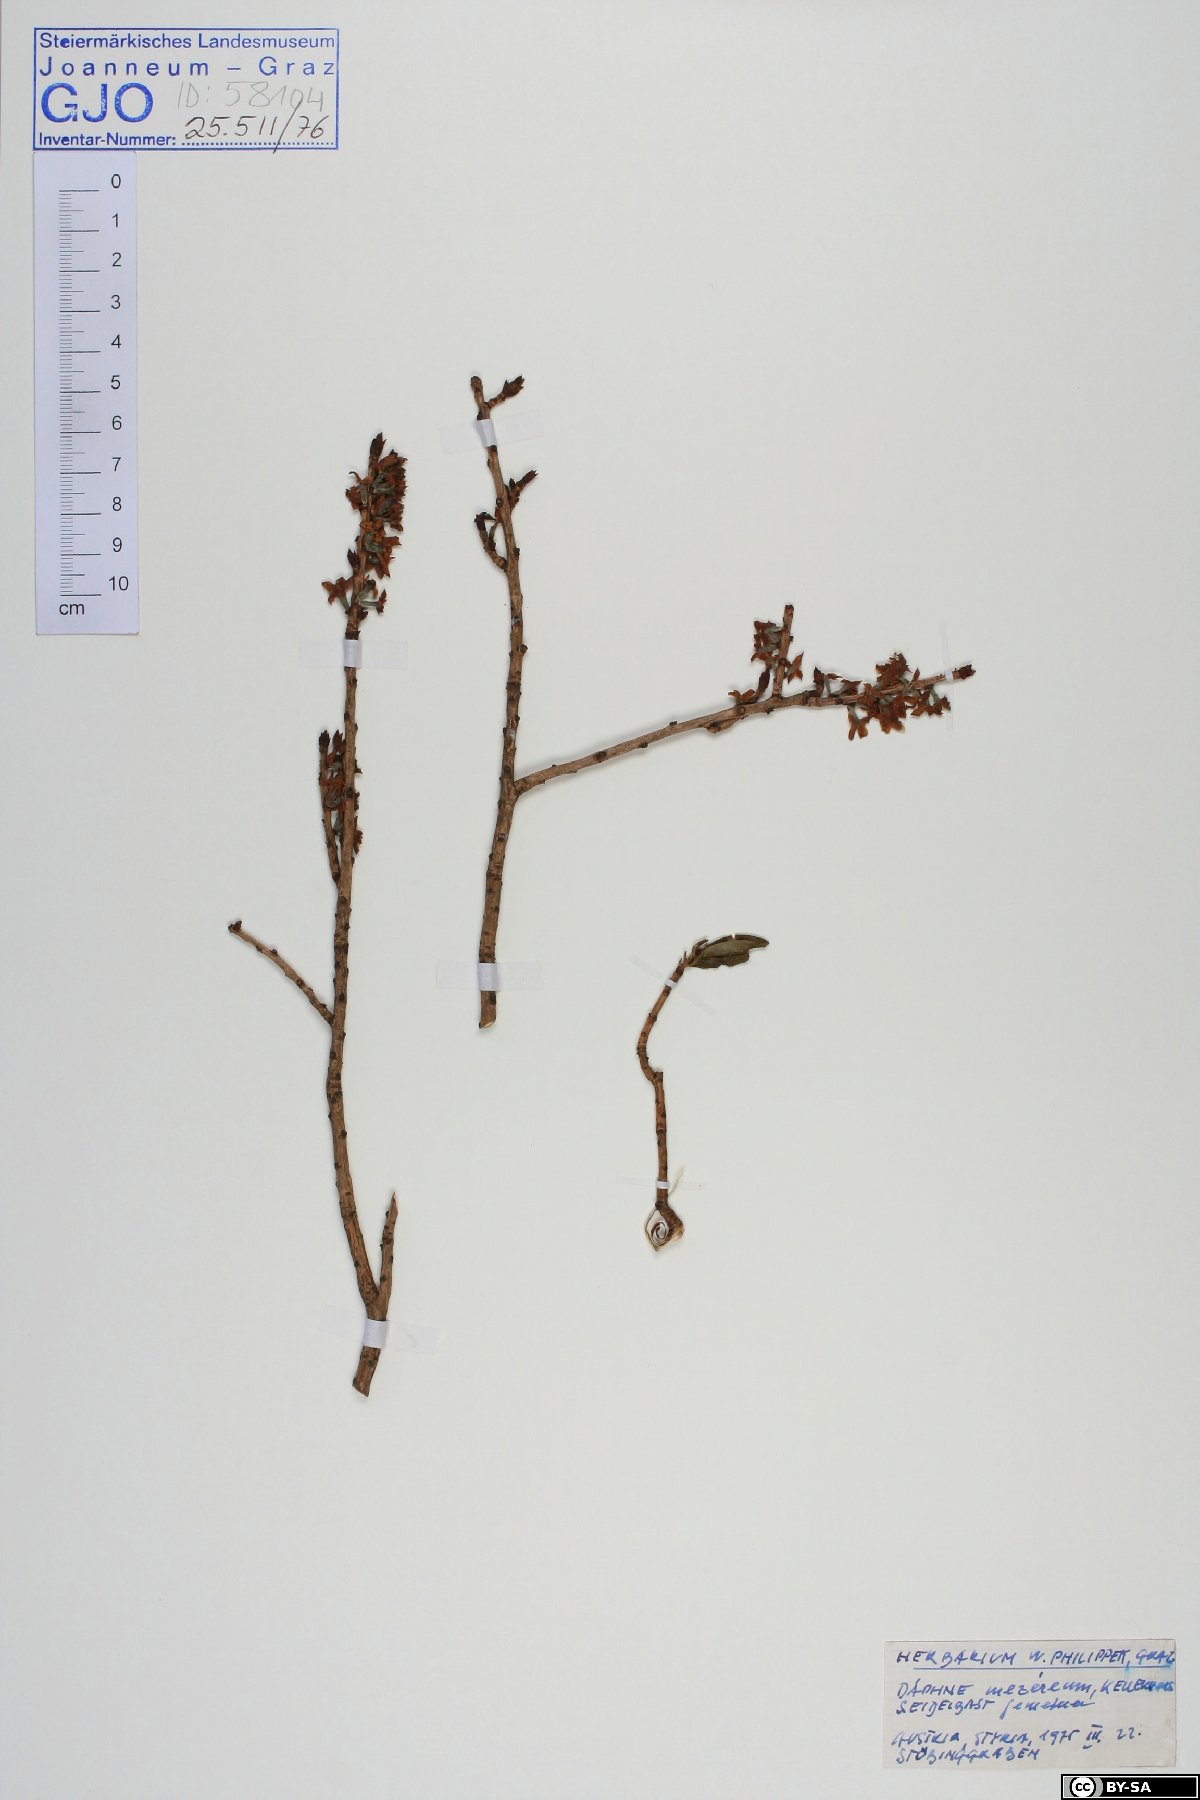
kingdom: Plantae
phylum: Tracheophyta
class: Magnoliopsida
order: Malvales
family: Thymelaeaceae
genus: Daphne
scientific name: Daphne mezereum
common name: Mezereon
